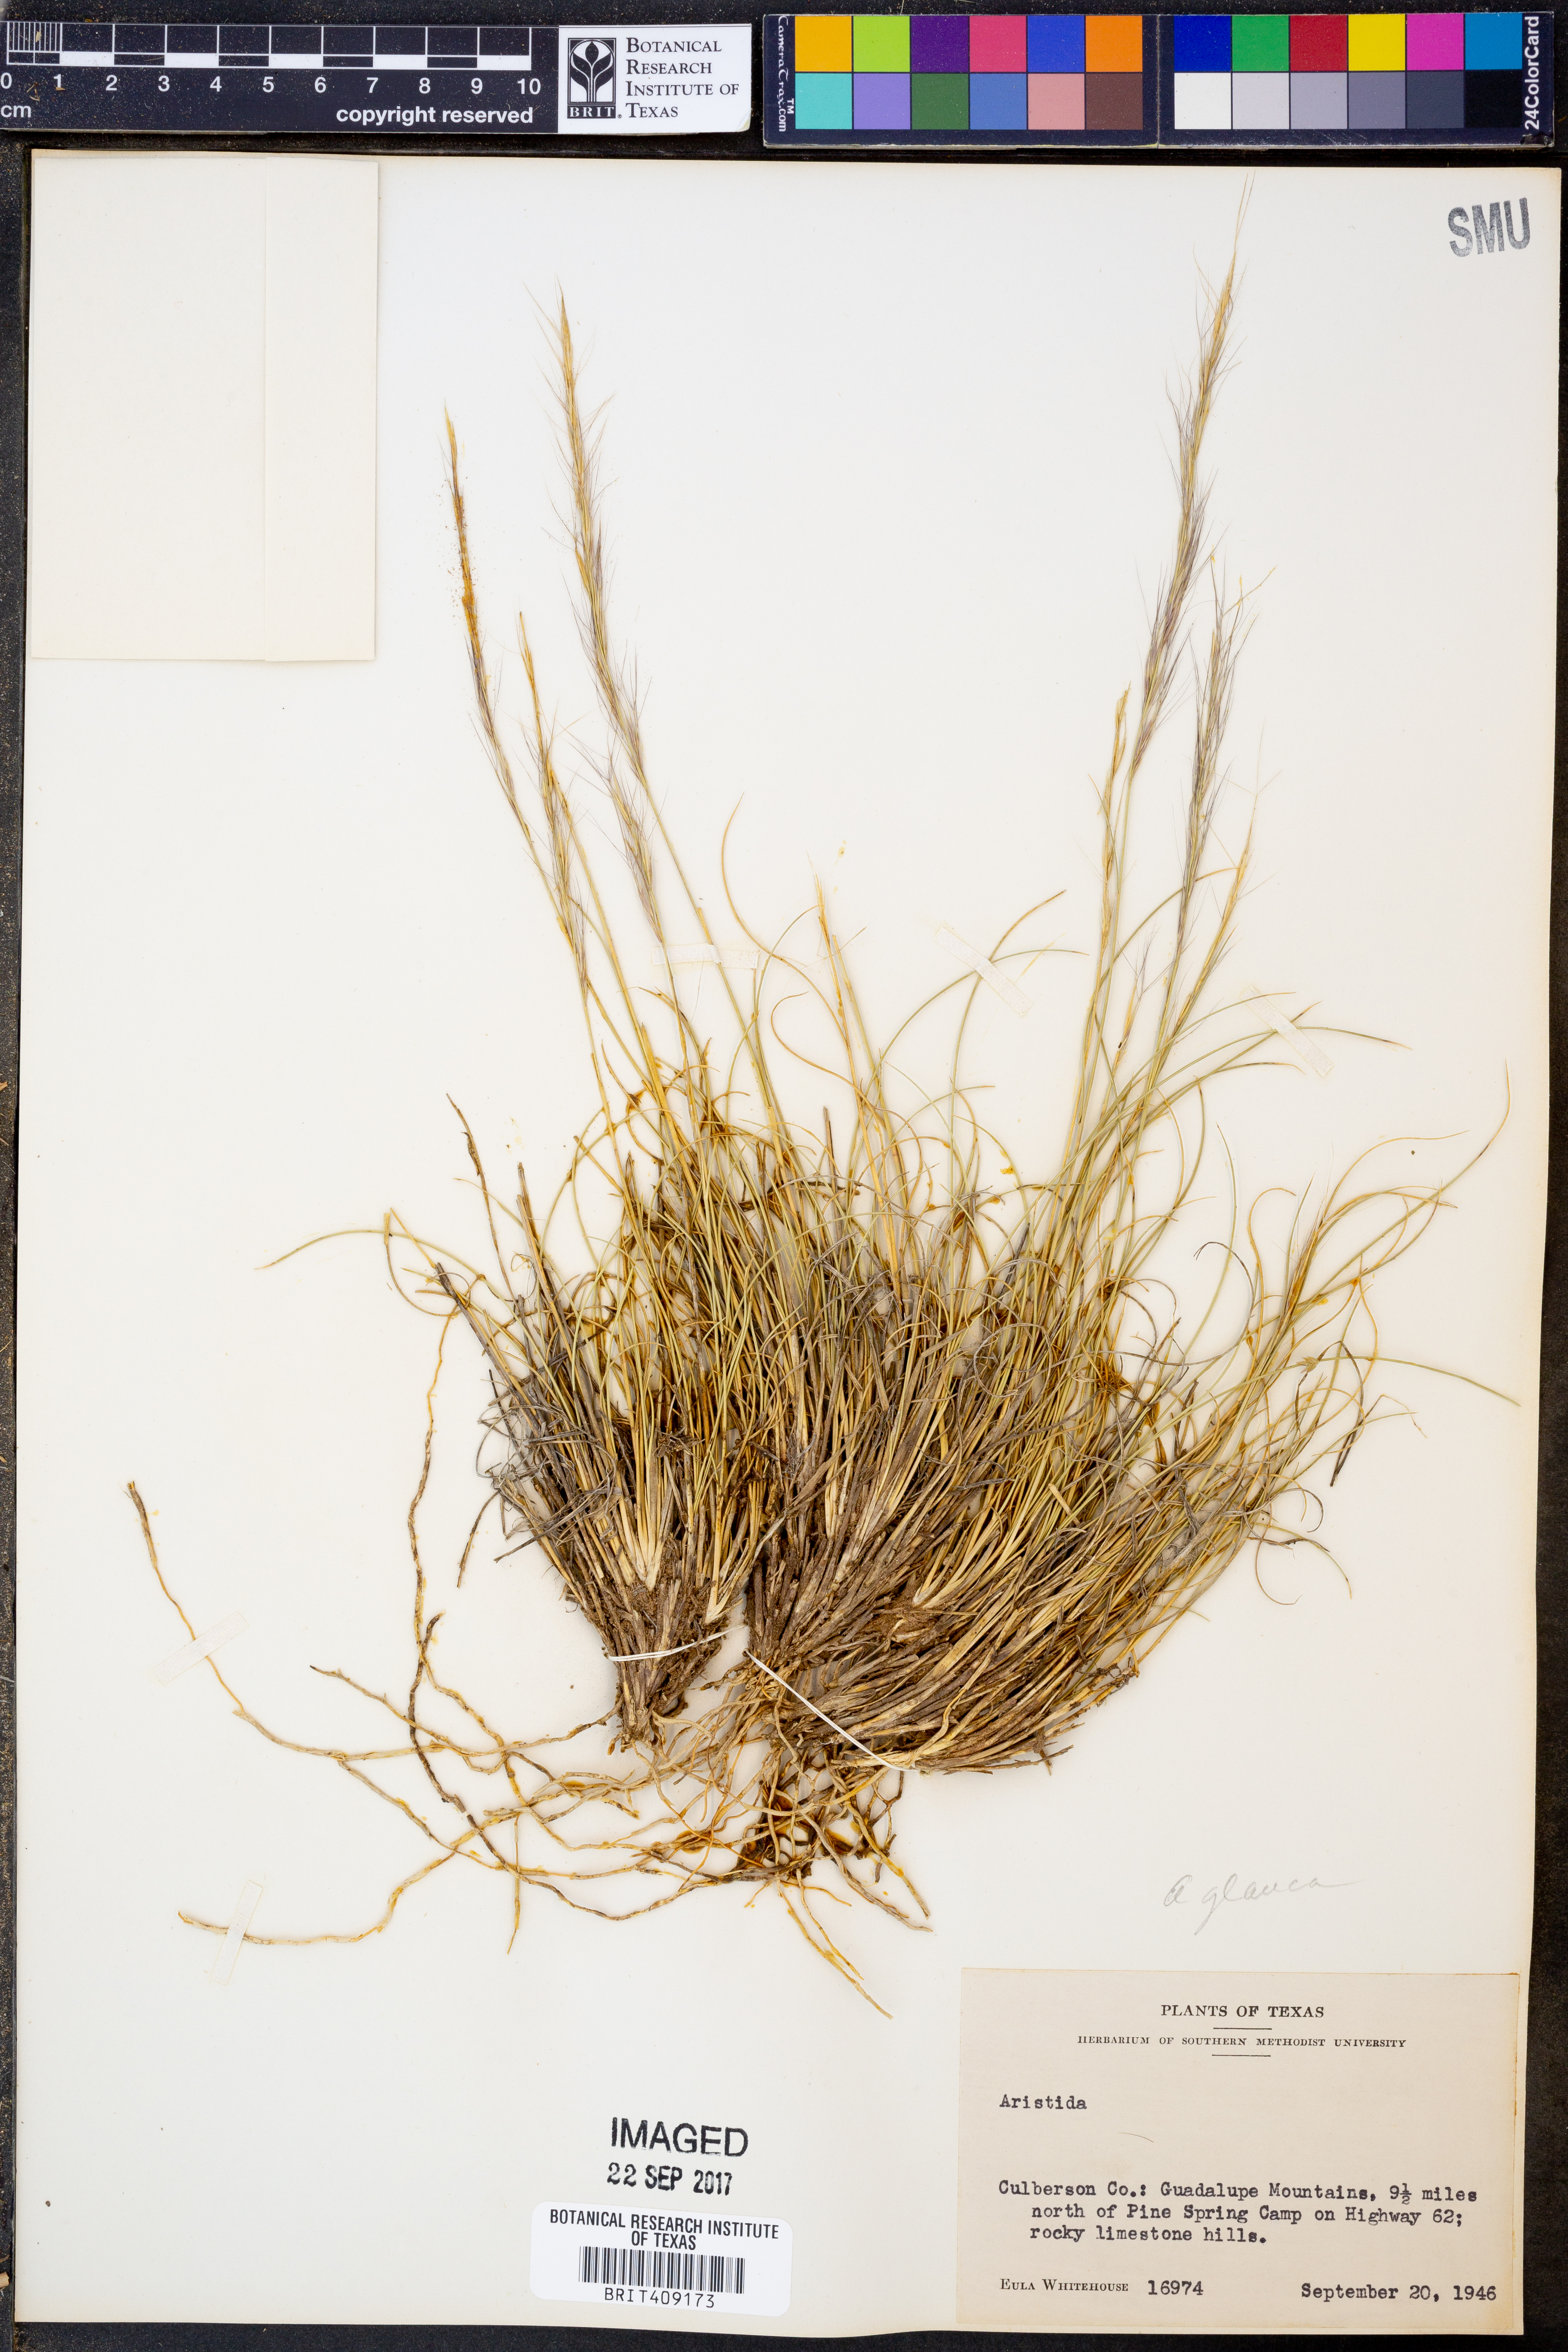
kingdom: Plantae
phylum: Tracheophyta
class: Liliopsida
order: Poales
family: Poaceae
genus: Aristida
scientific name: Aristida
